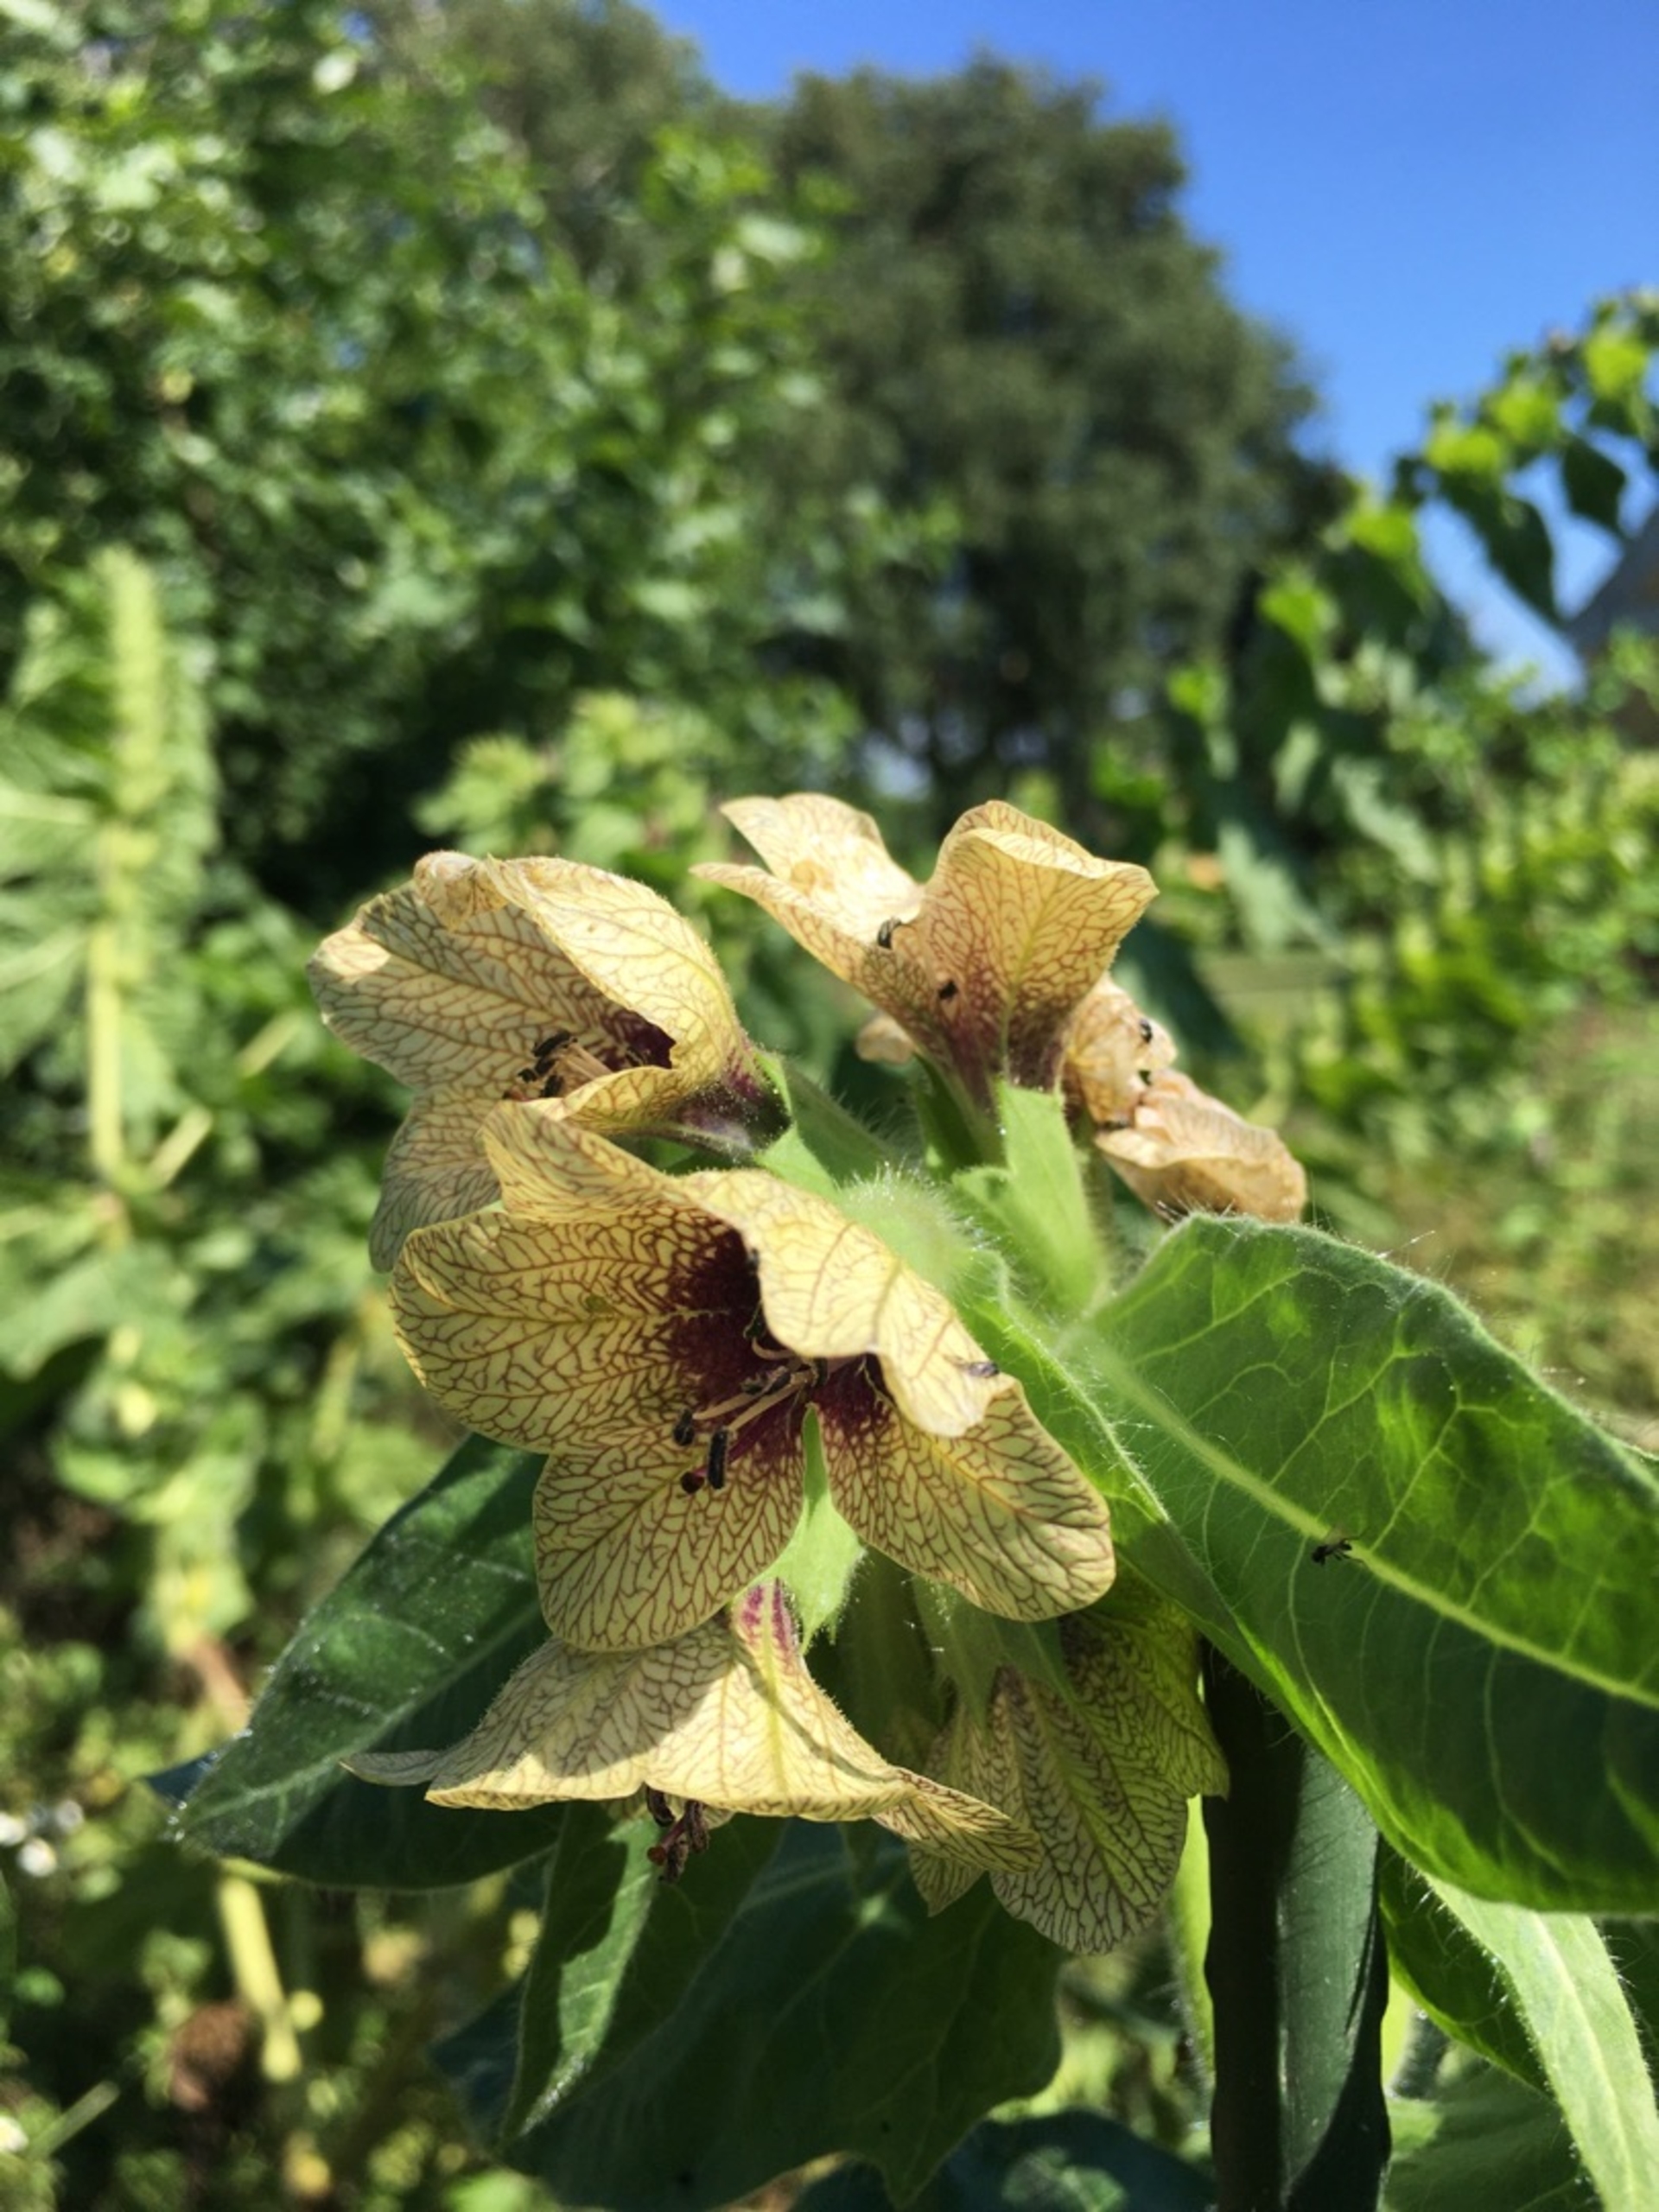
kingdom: Plantae
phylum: Tracheophyta
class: Magnoliopsida
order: Solanales
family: Solanaceae
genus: Hyoscyamus
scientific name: Hyoscyamus niger
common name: Bulmeurt
